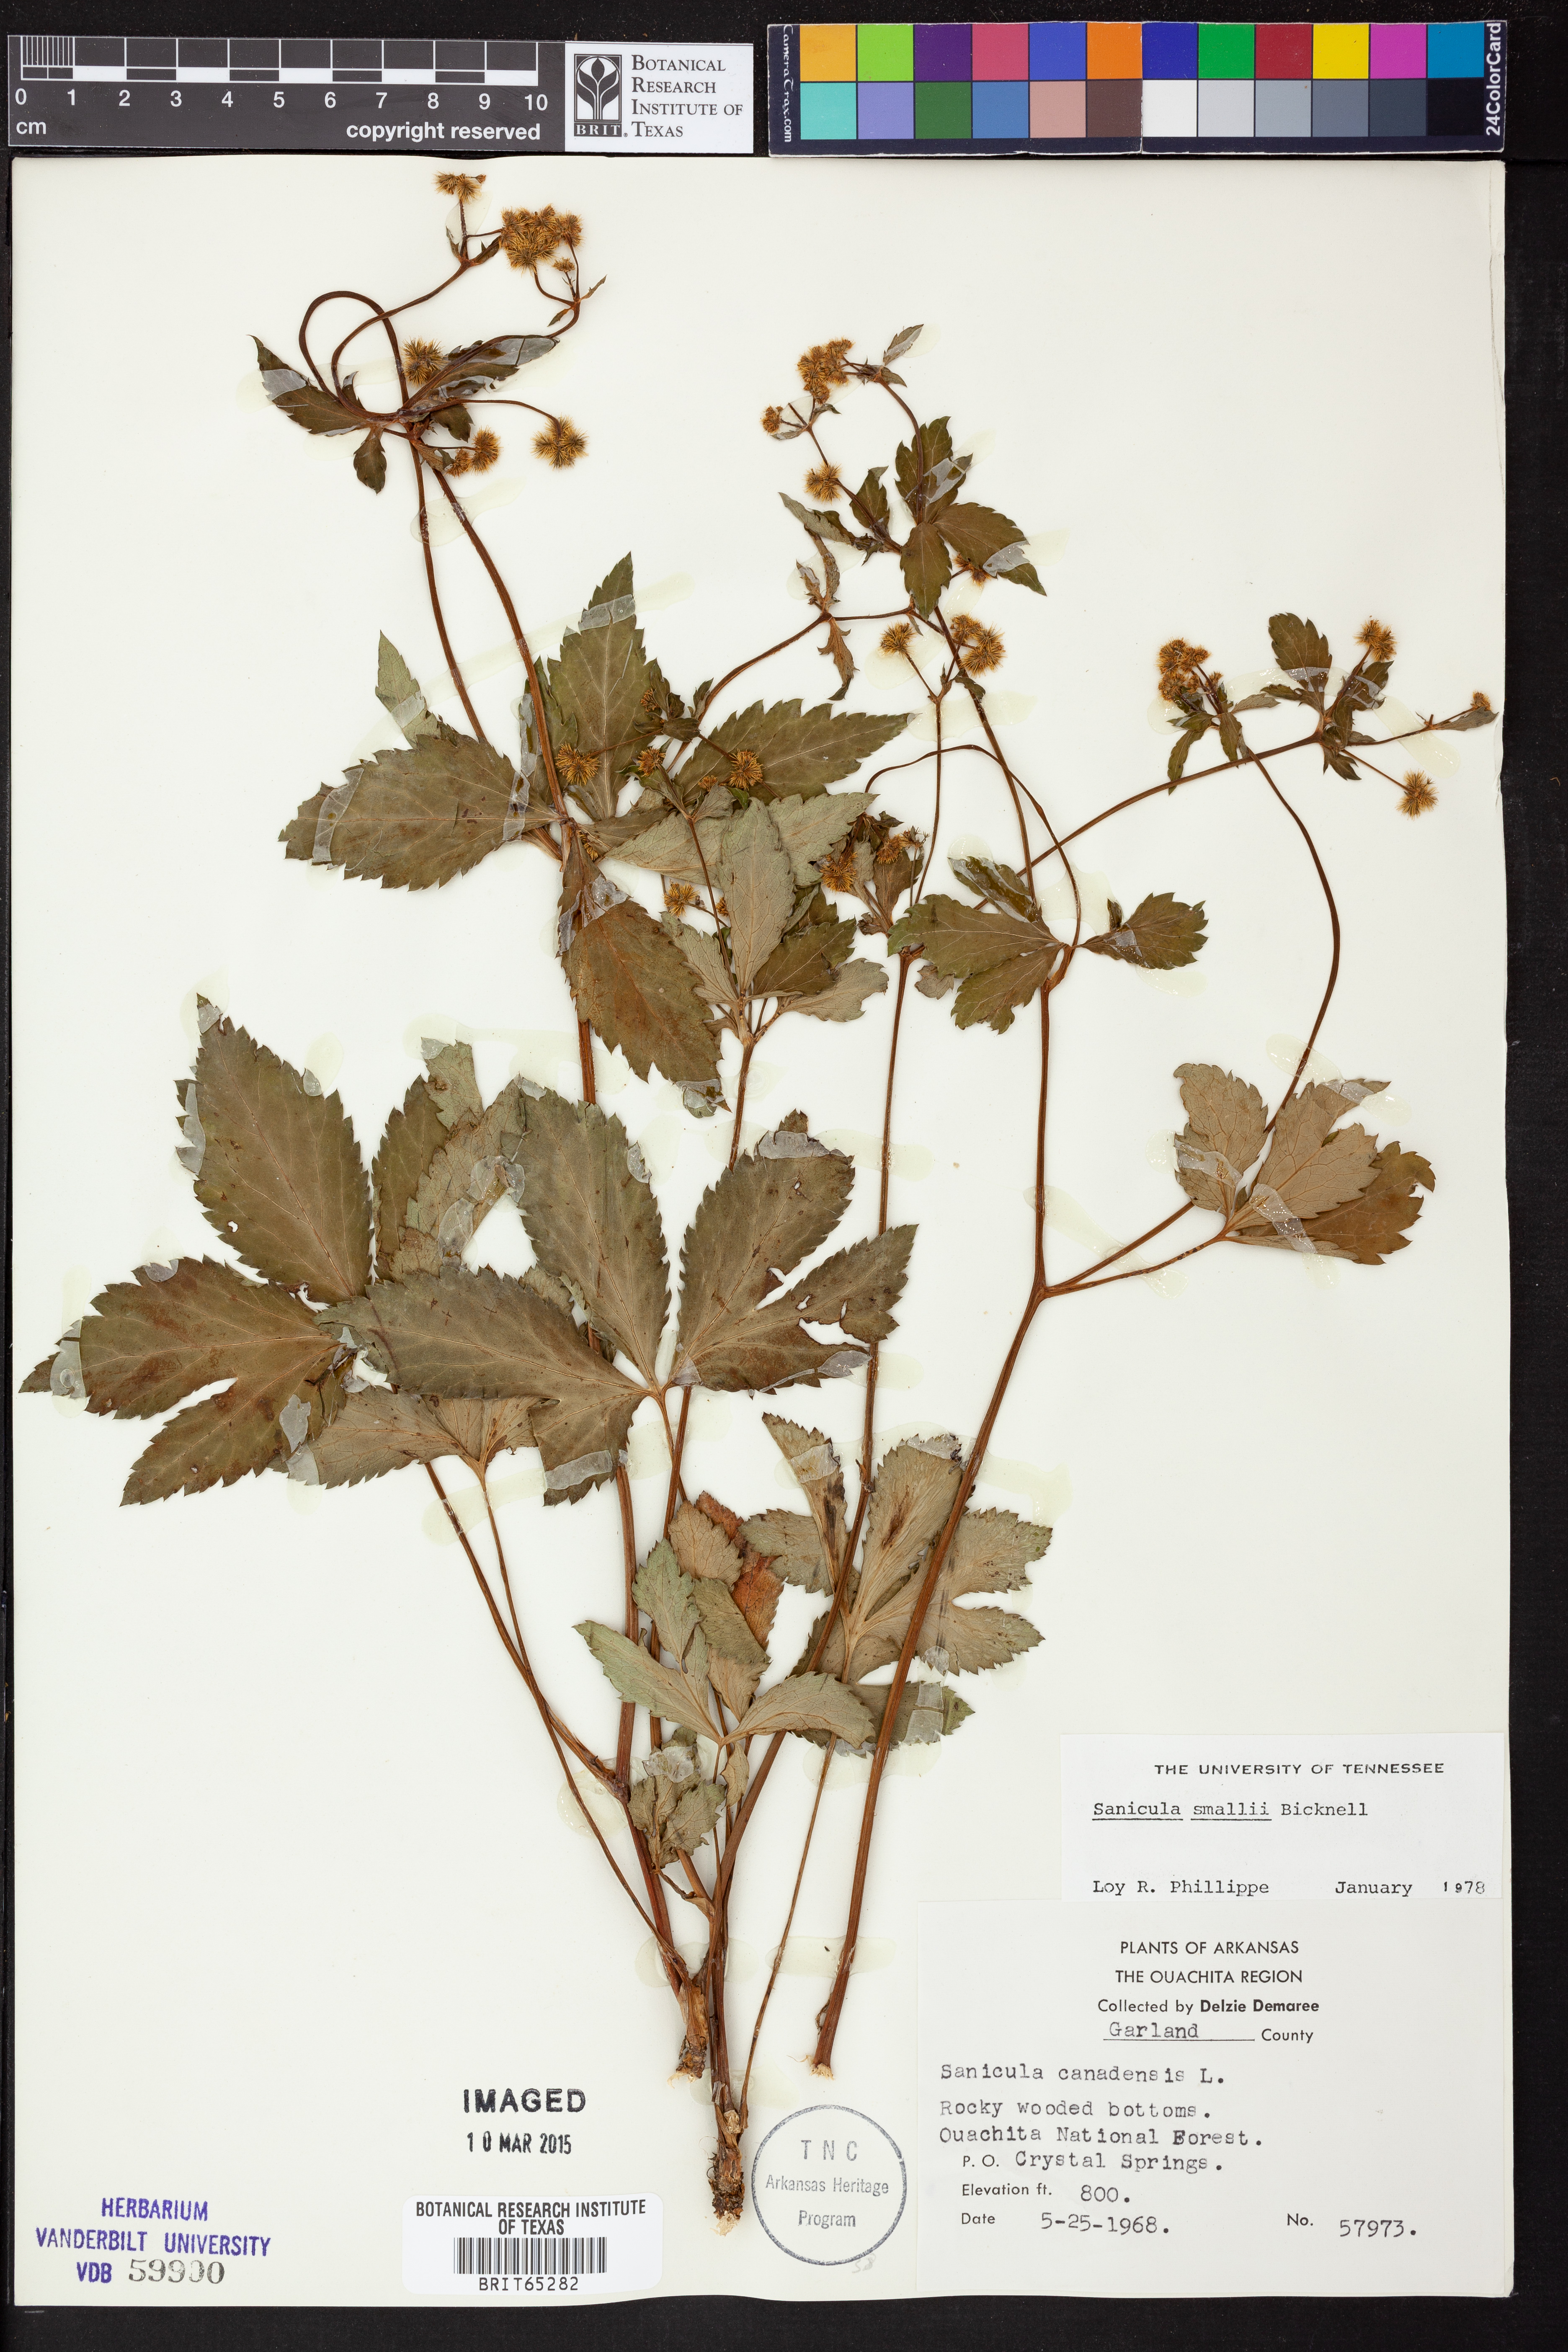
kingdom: Plantae
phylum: Tracheophyta
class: Magnoliopsida
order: Apiales
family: Apiaceae
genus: Sanicula
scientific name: Sanicula smallii
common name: Small's black snakeroot
